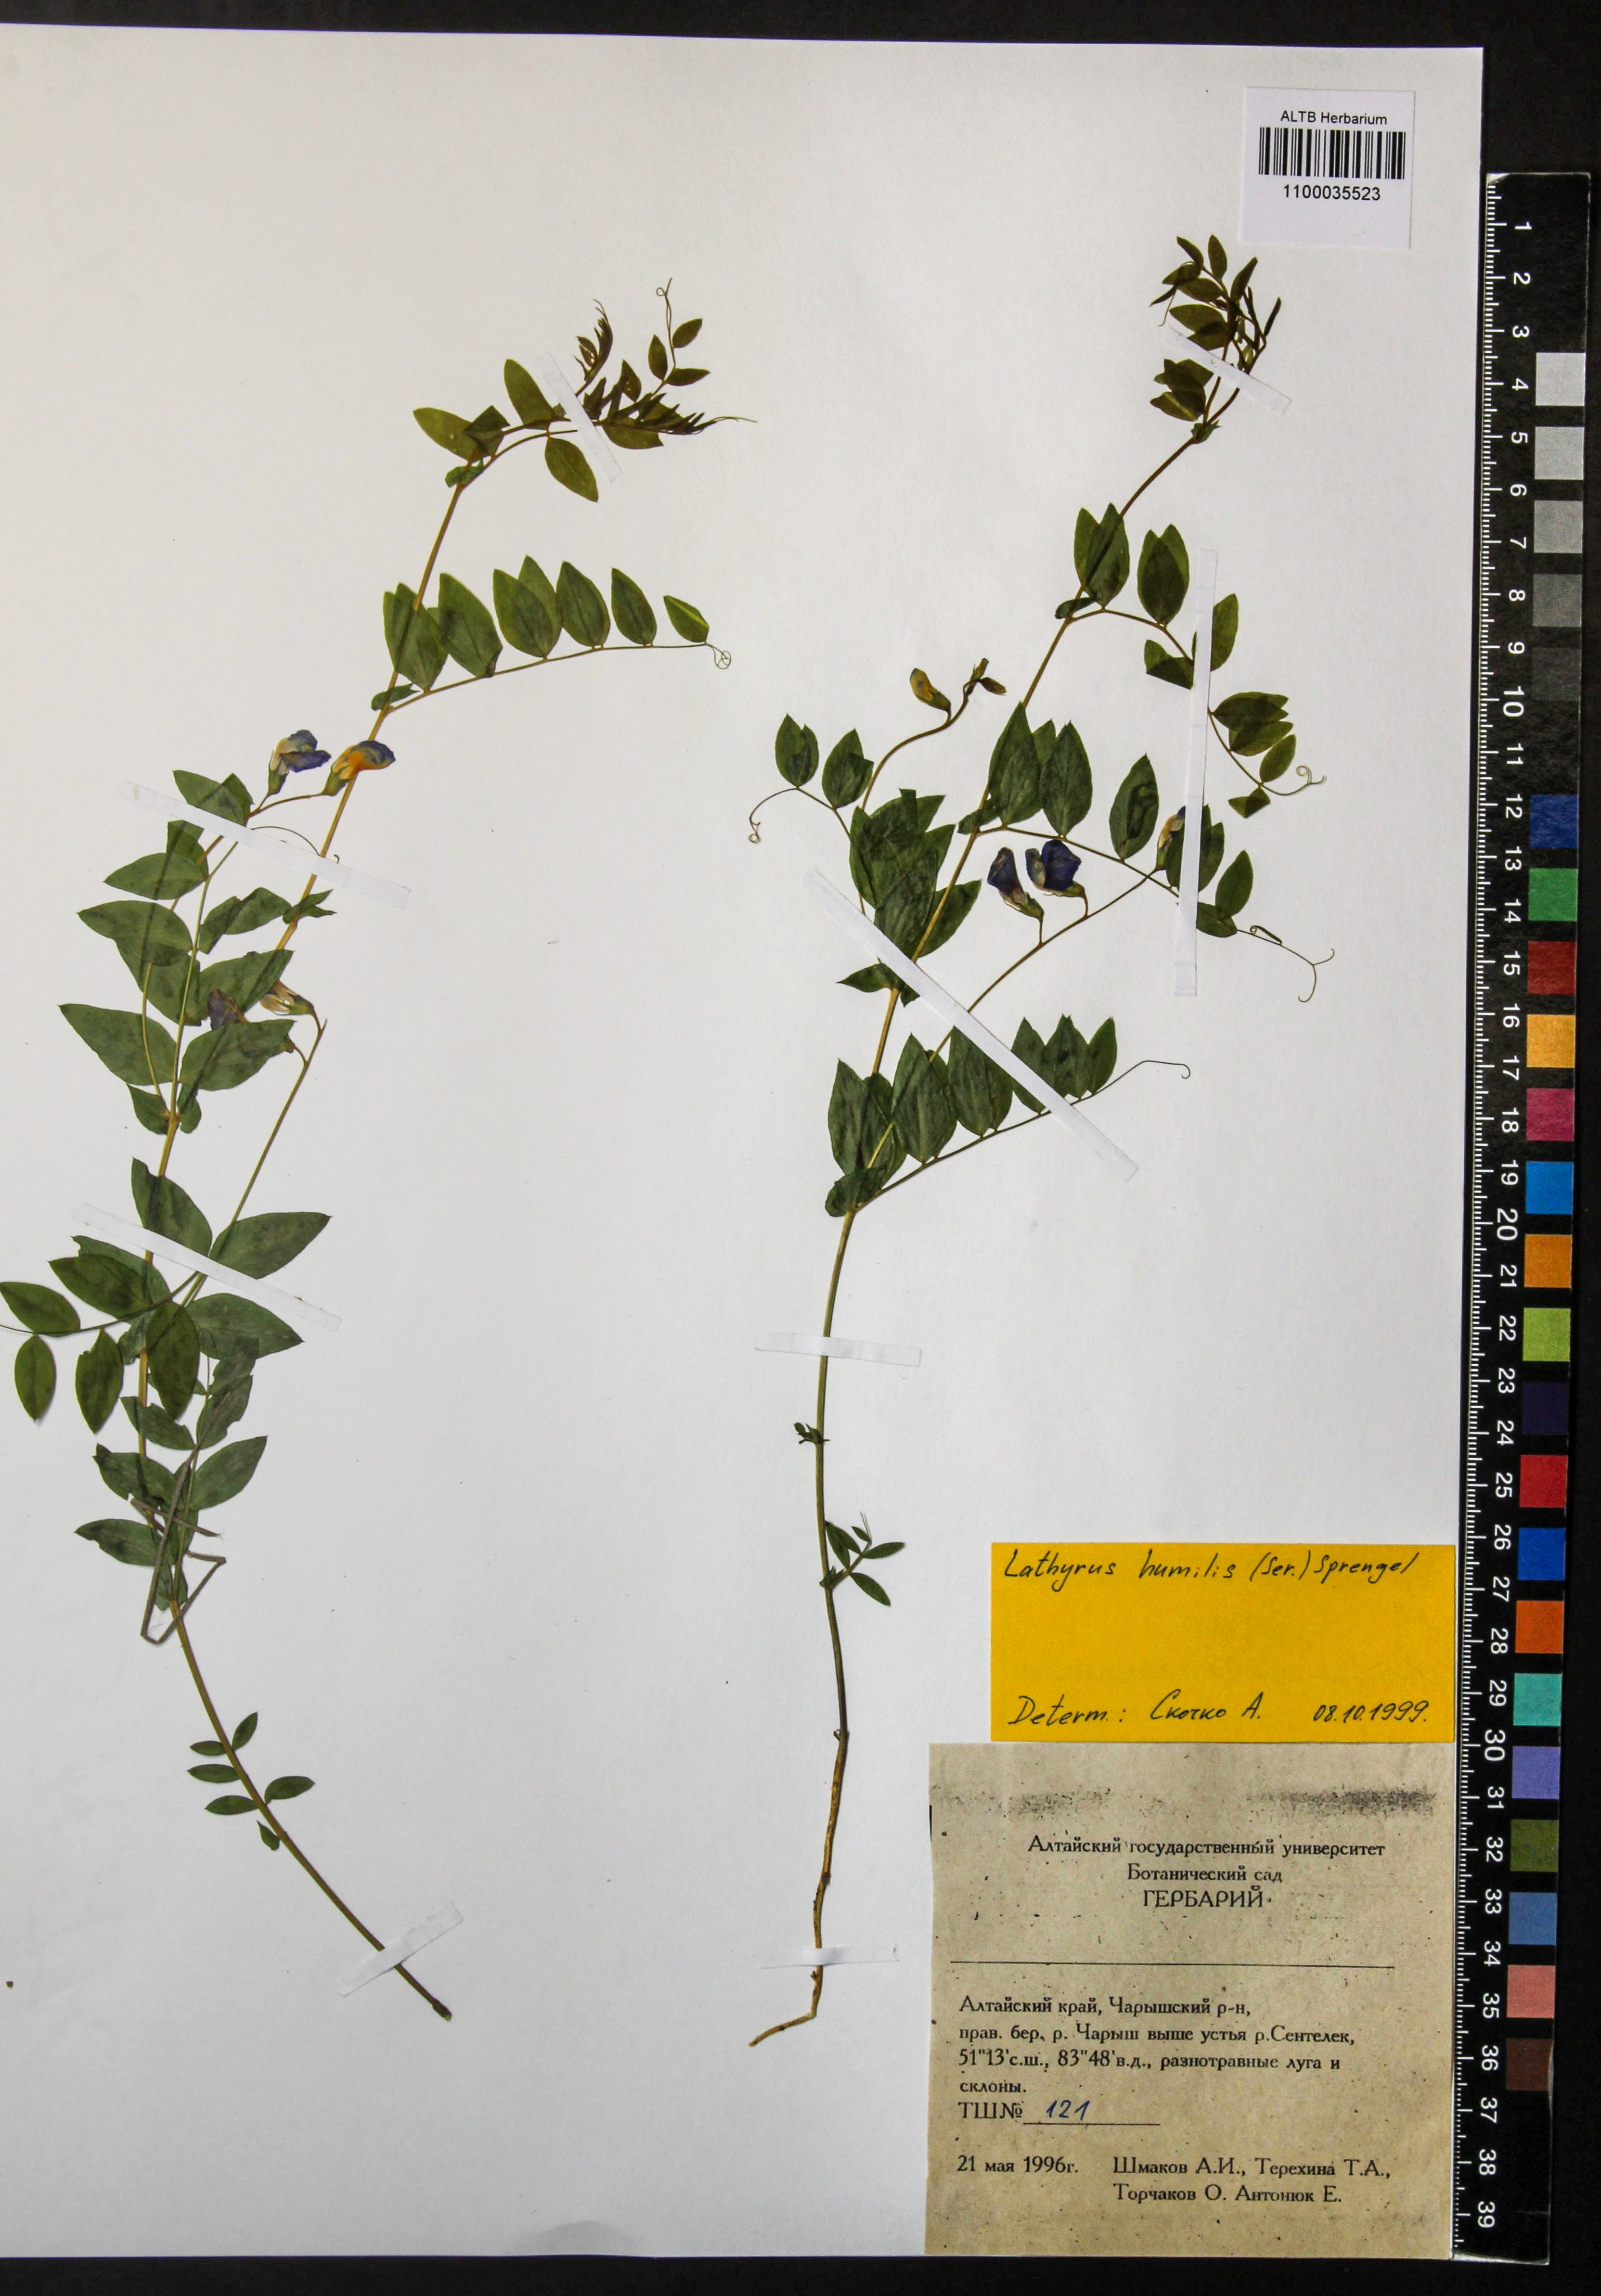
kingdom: Plantae
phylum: Tracheophyta
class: Magnoliopsida
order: Fabales
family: Fabaceae
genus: Lathyrus
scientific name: Lathyrus humilis
